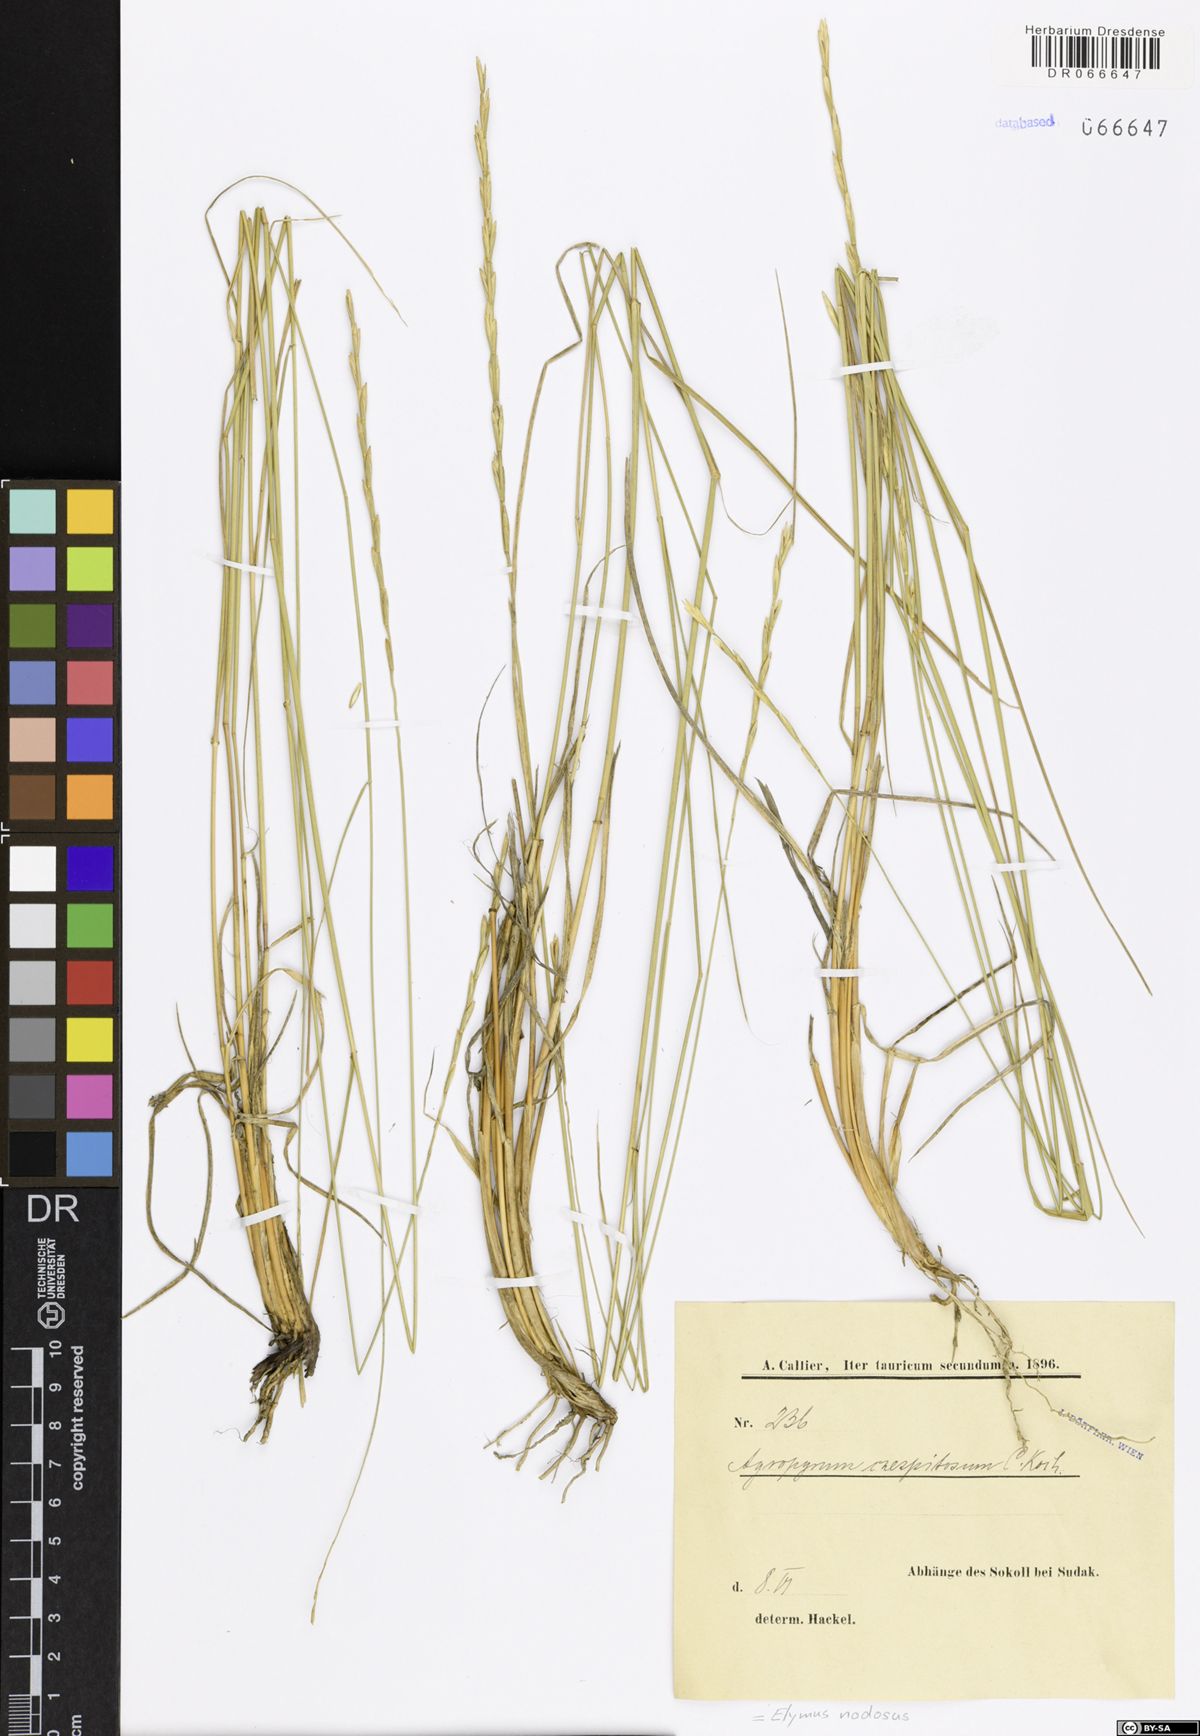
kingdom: Plantae
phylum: Tracheophyta
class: Liliopsida
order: Poales
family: Poaceae
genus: Elymus
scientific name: Elymus nodosus
